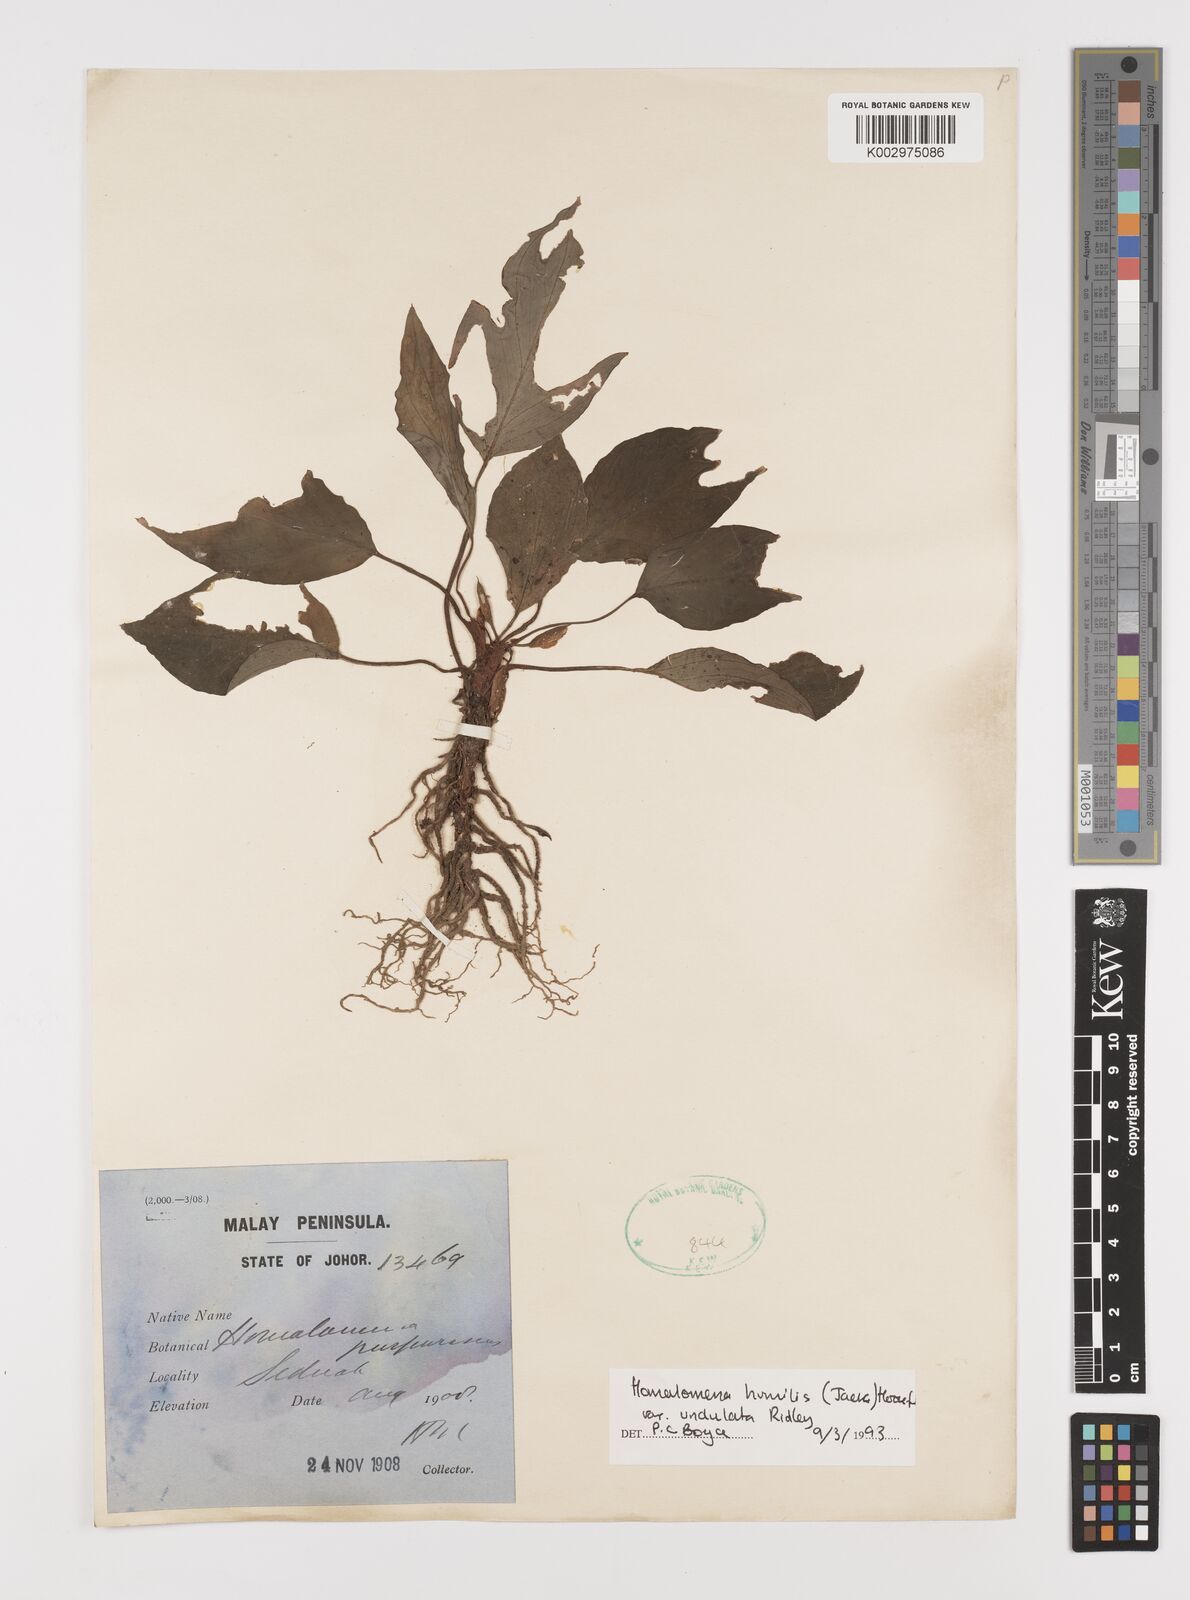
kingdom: Plantae
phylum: Tracheophyta
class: Liliopsida
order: Alismatales
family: Araceae
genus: Homalomena
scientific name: Homalomena humilis
